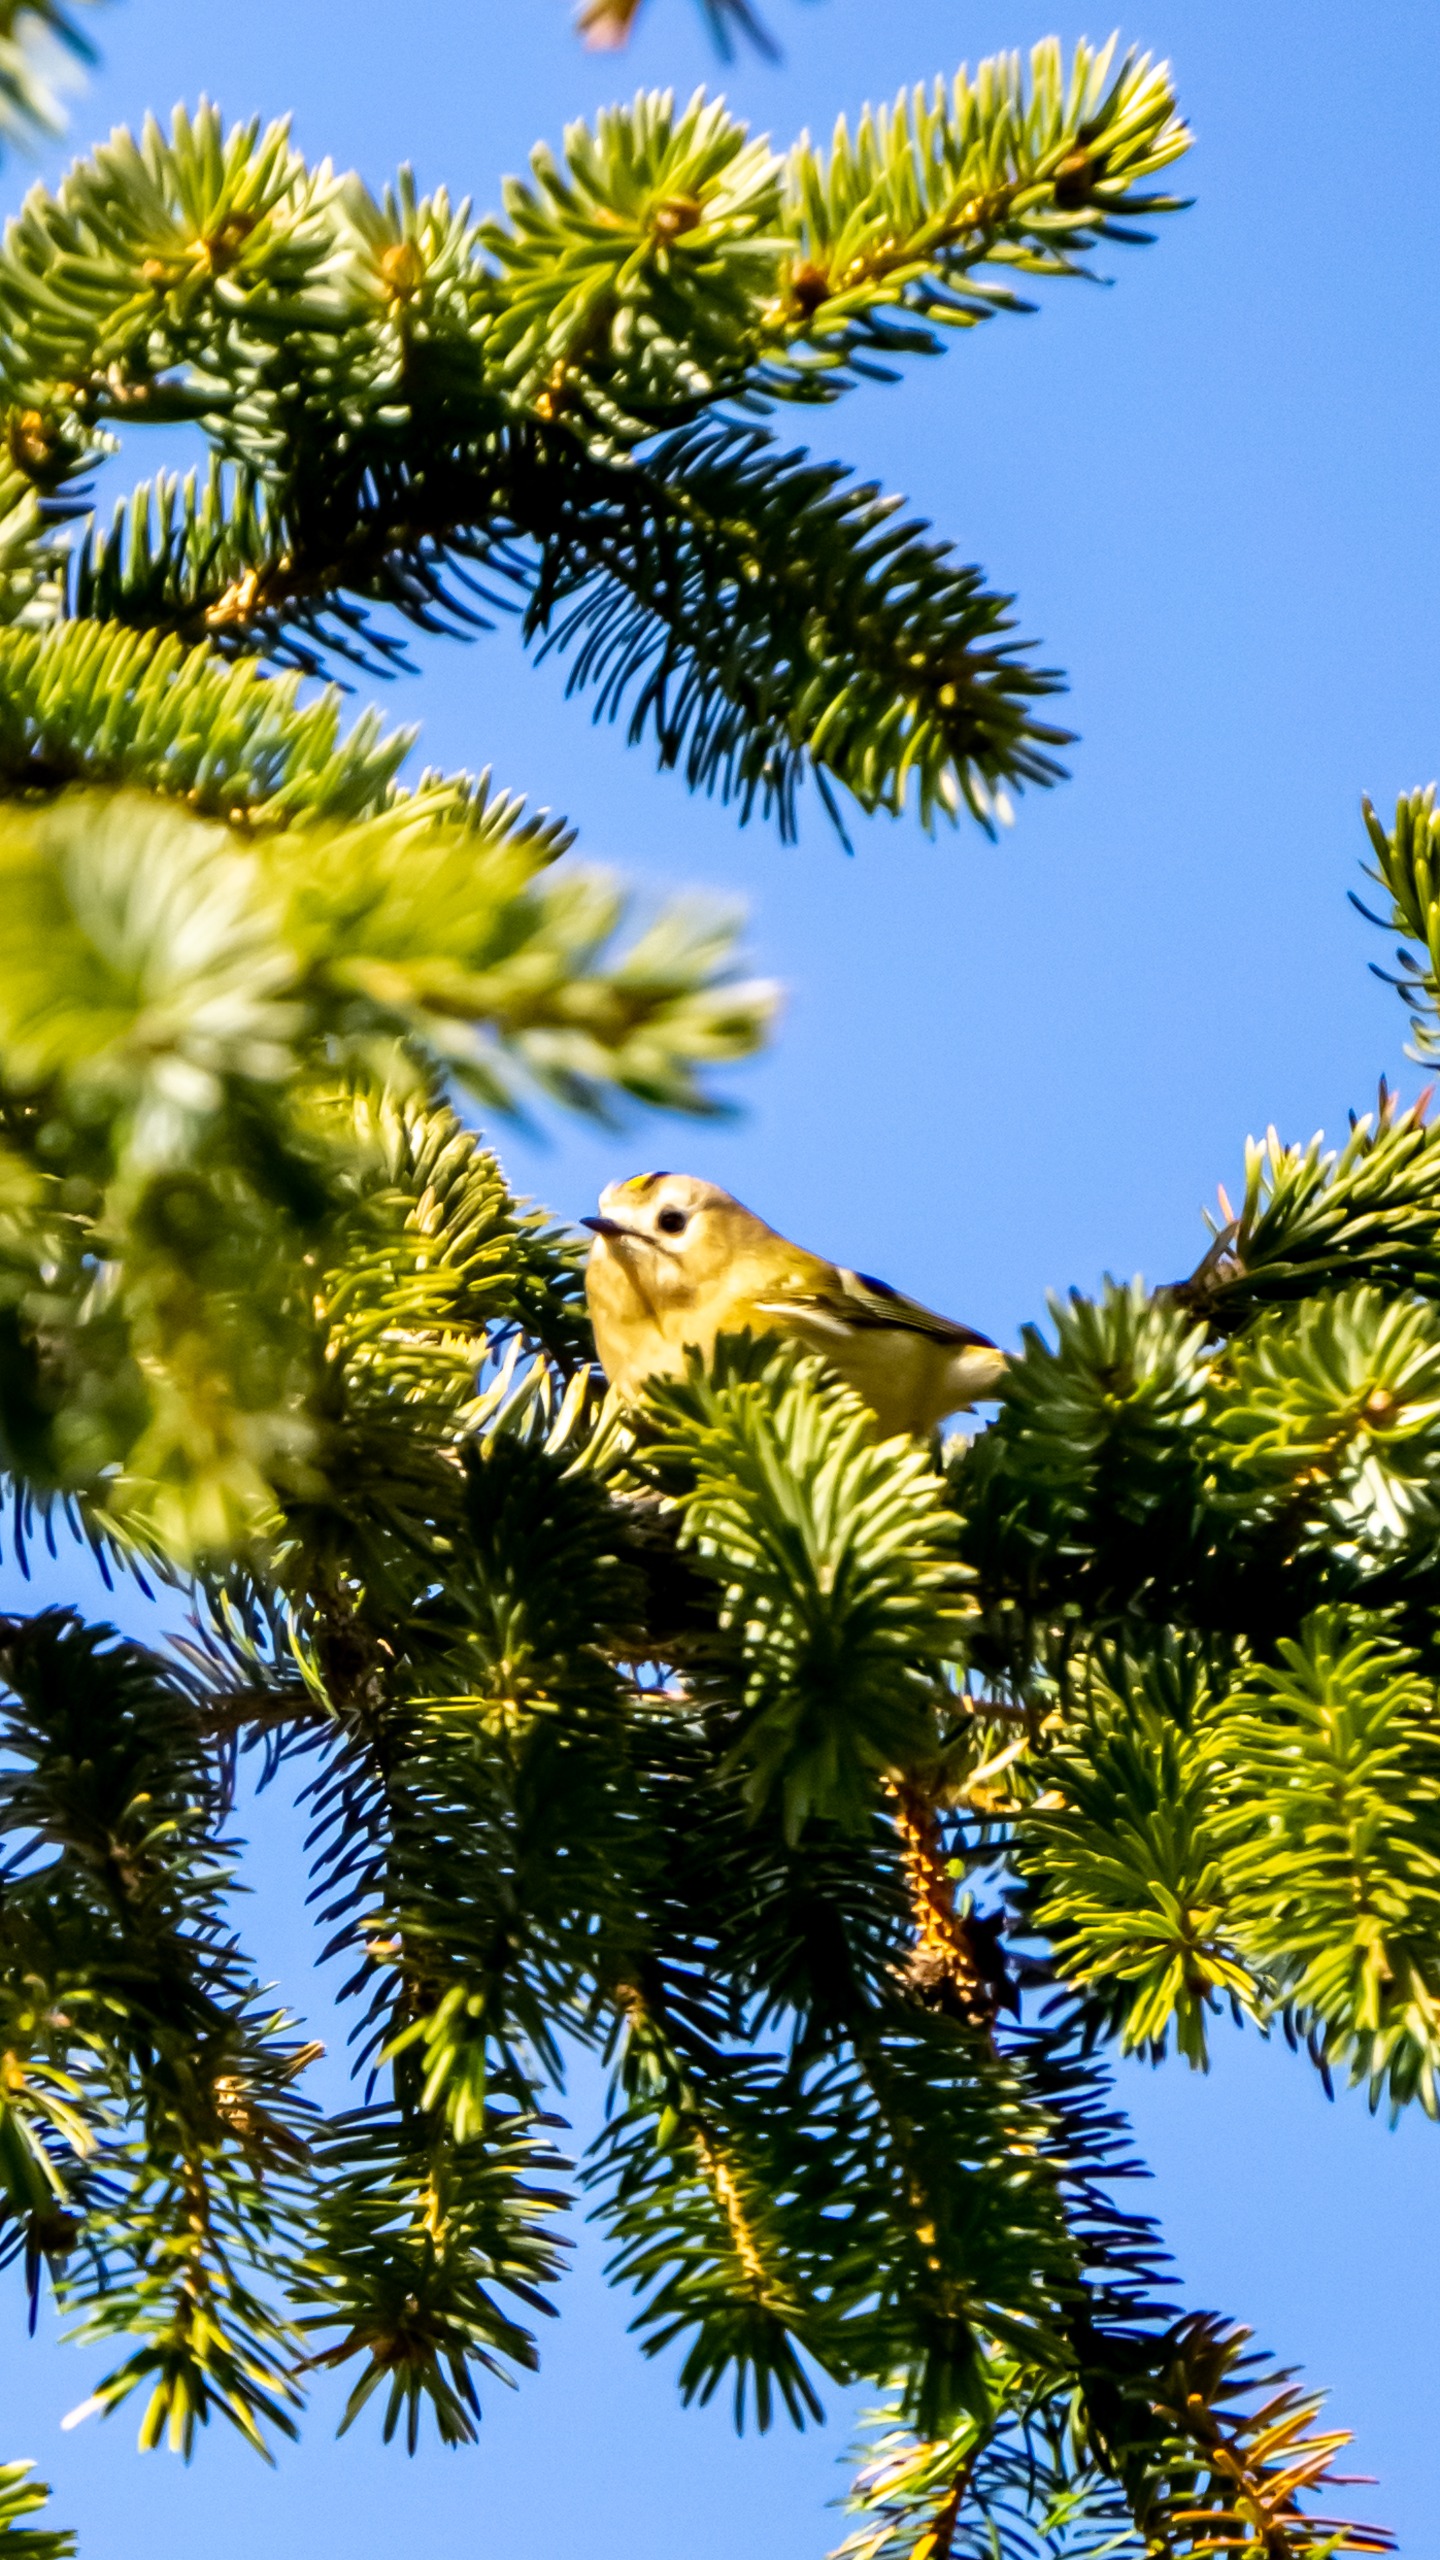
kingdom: Animalia
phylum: Chordata
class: Aves
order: Passeriformes
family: Regulidae
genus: Regulus
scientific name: Regulus regulus
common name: Fuglekonge
